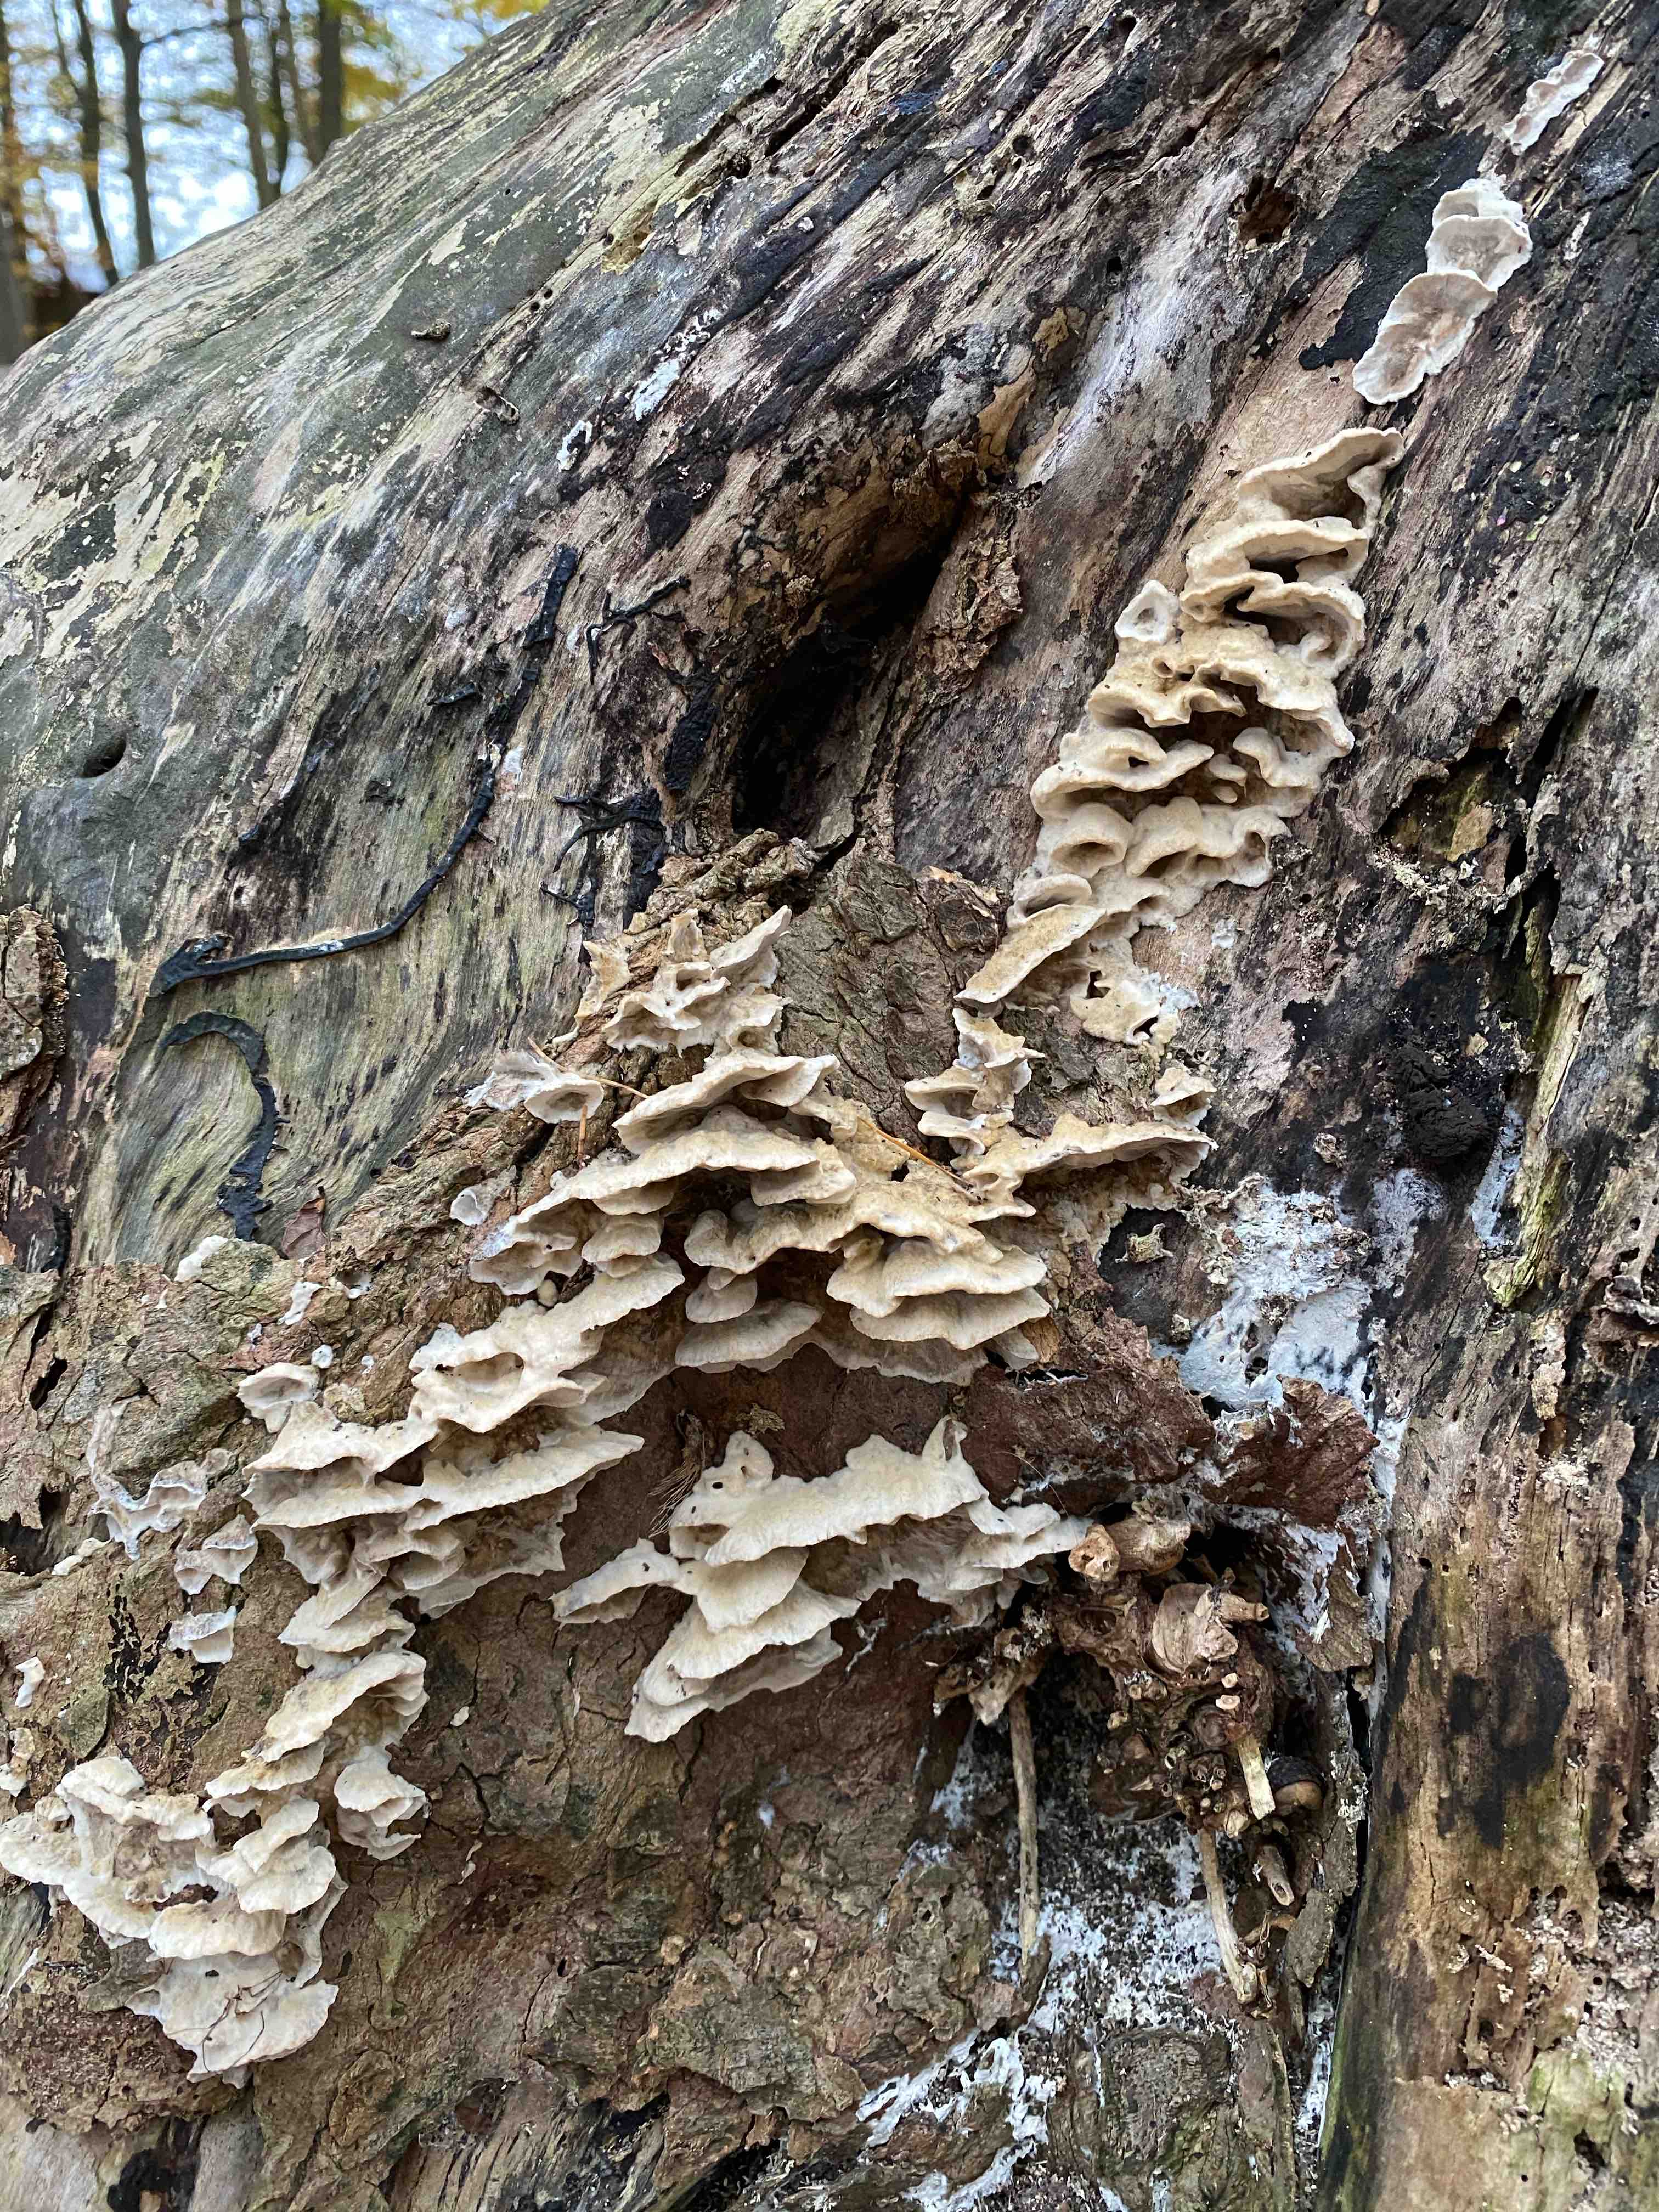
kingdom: Fungi
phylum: Basidiomycota
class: Agaricomycetes
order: Polyporales
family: Phanerochaetaceae
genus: Bjerkandera
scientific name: Bjerkandera fumosa
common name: grågul sodporesvamp
